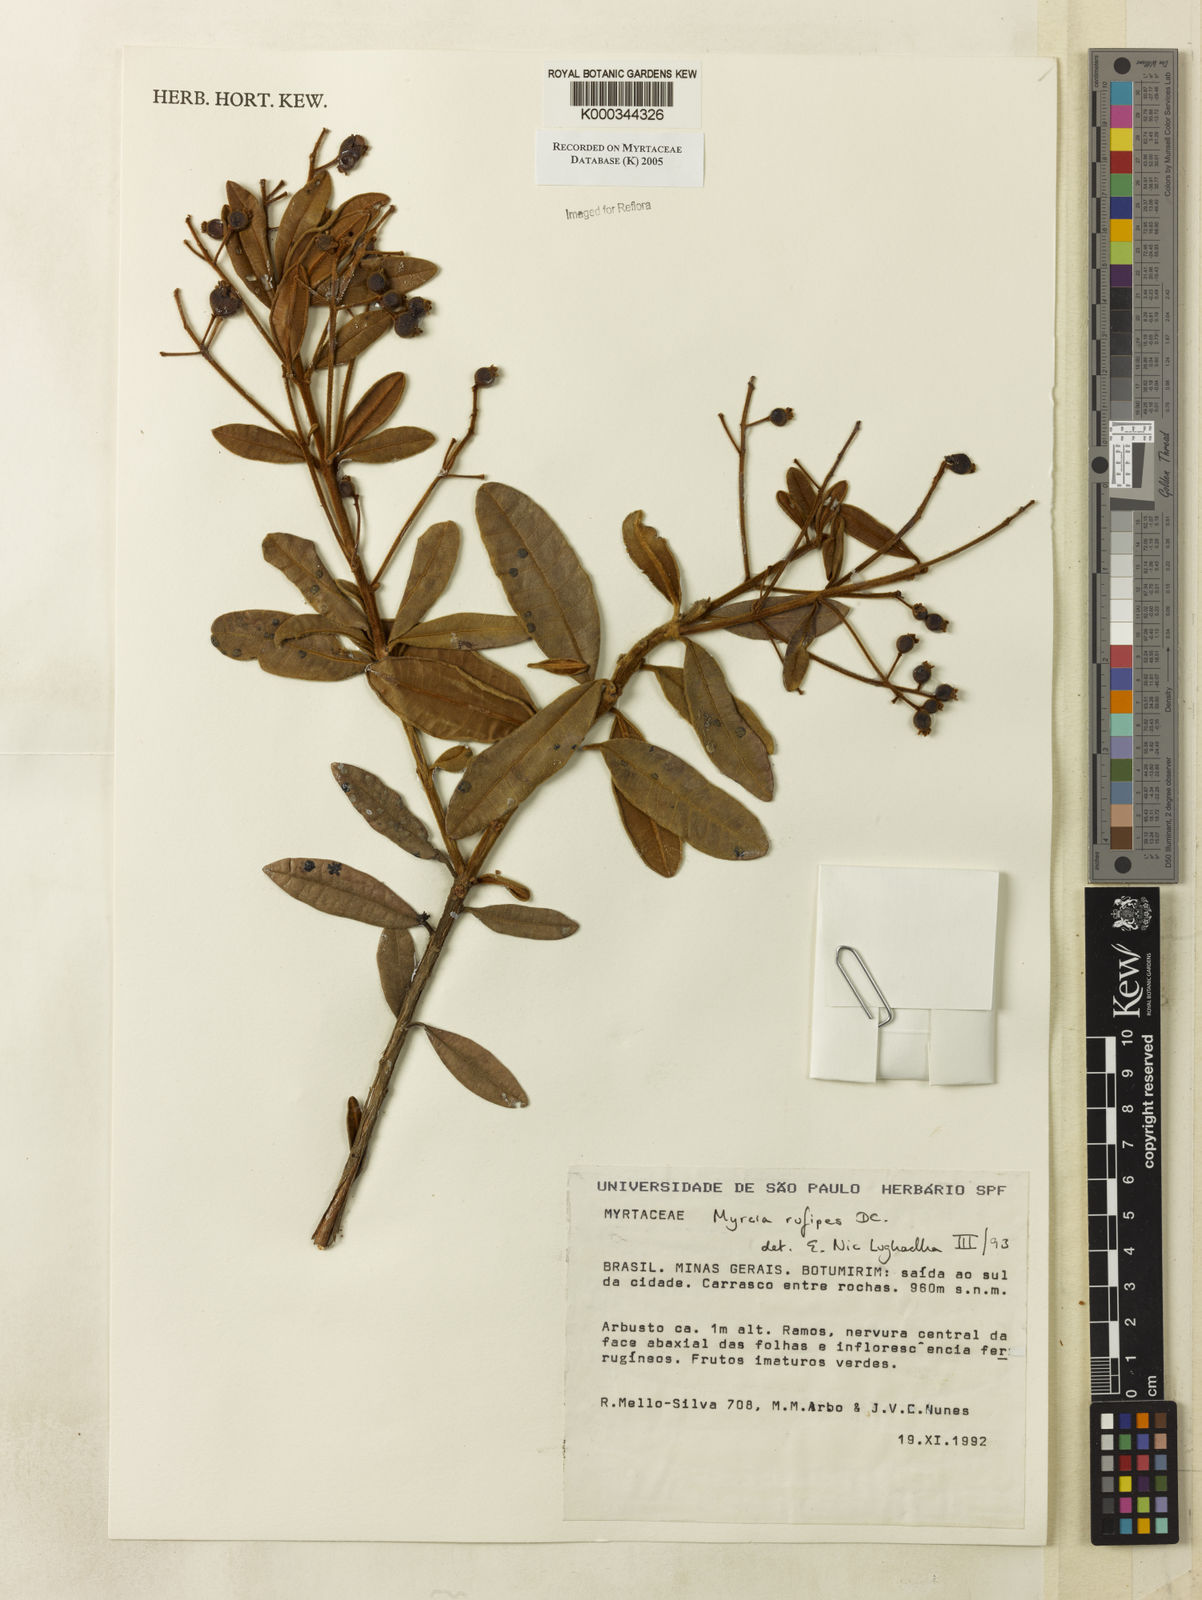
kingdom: Plantae
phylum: Tracheophyta
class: Magnoliopsida
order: Myrtales
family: Myrtaceae
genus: Myrcia
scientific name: Myrcia rufipes
